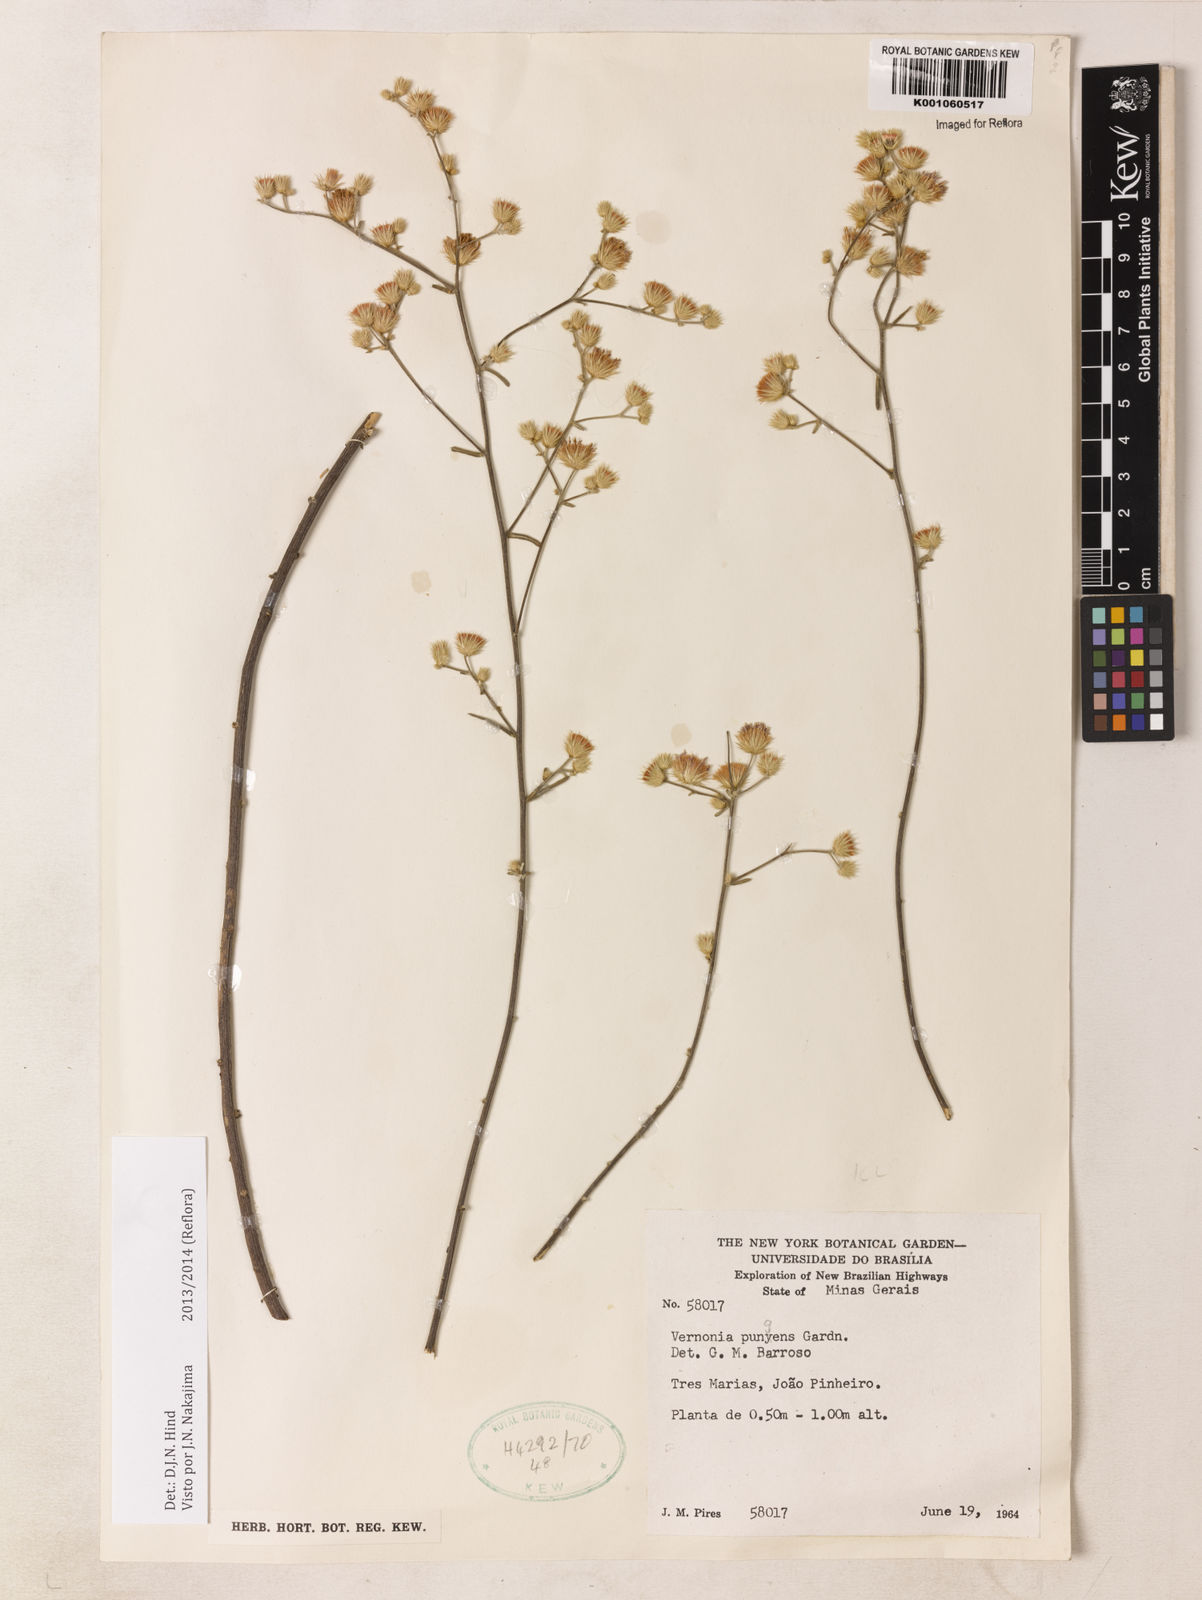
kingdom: Plantae
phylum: Tracheophyta
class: Magnoliopsida
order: Asterales
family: Asteraceae
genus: Echinocoryne
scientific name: Echinocoryne pungens
